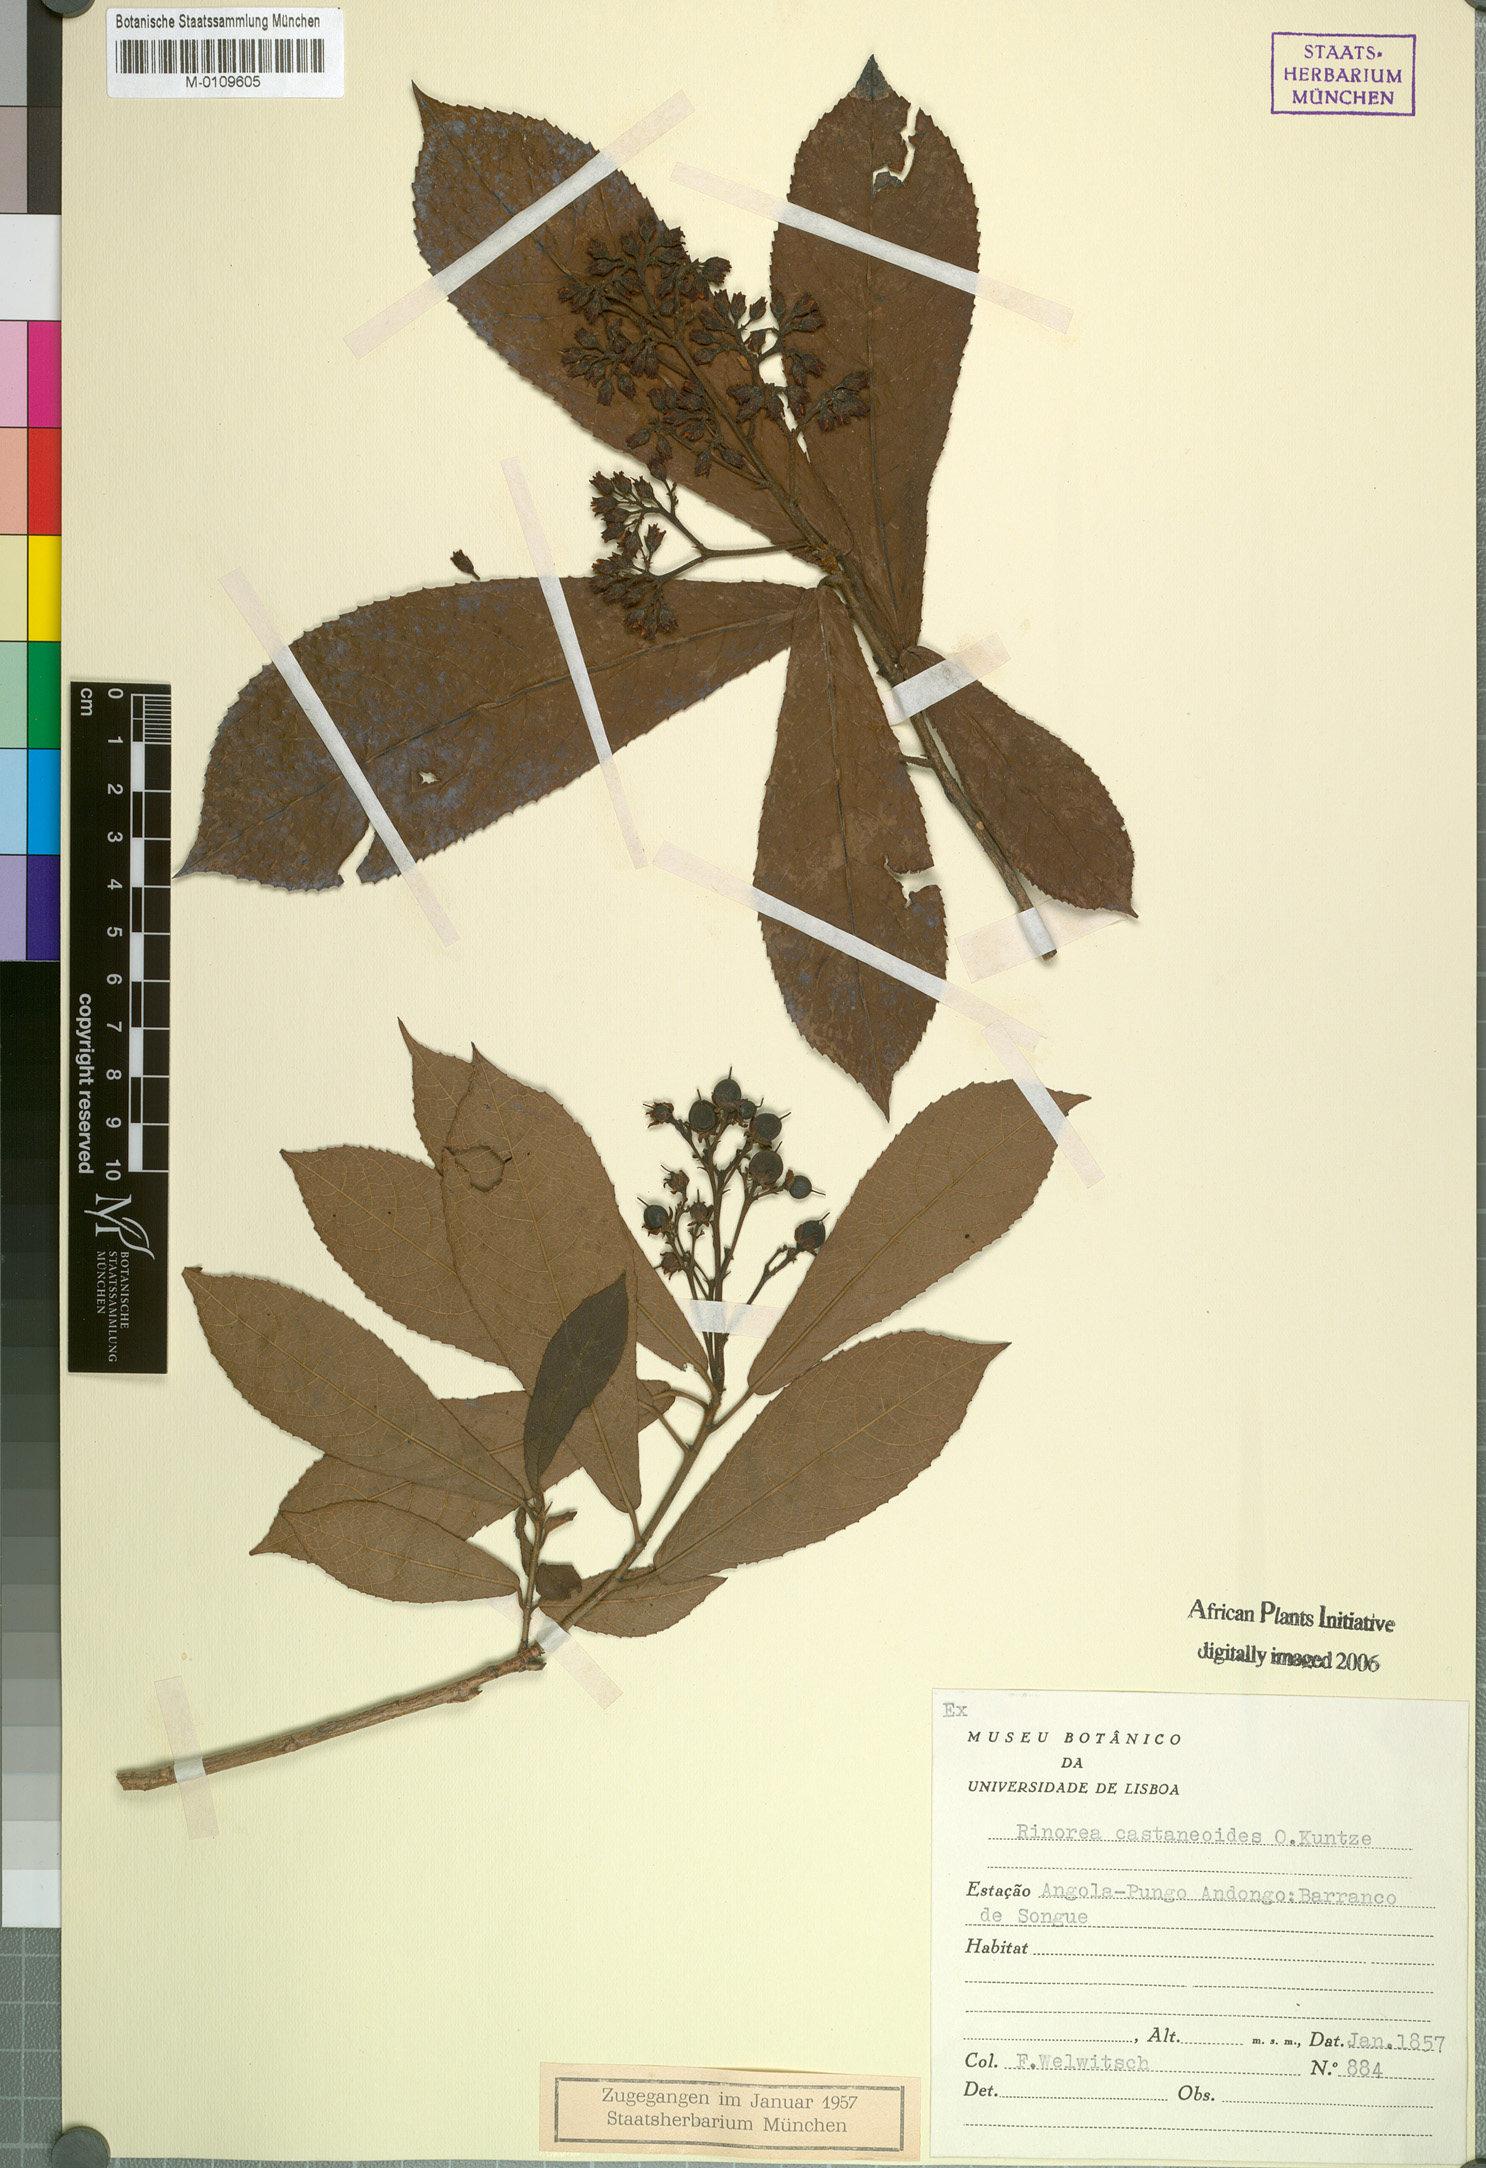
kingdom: Plantae
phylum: Tracheophyta
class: Magnoliopsida
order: Malpighiales
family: Violaceae
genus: Rinorea
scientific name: Rinorea castaneoides
